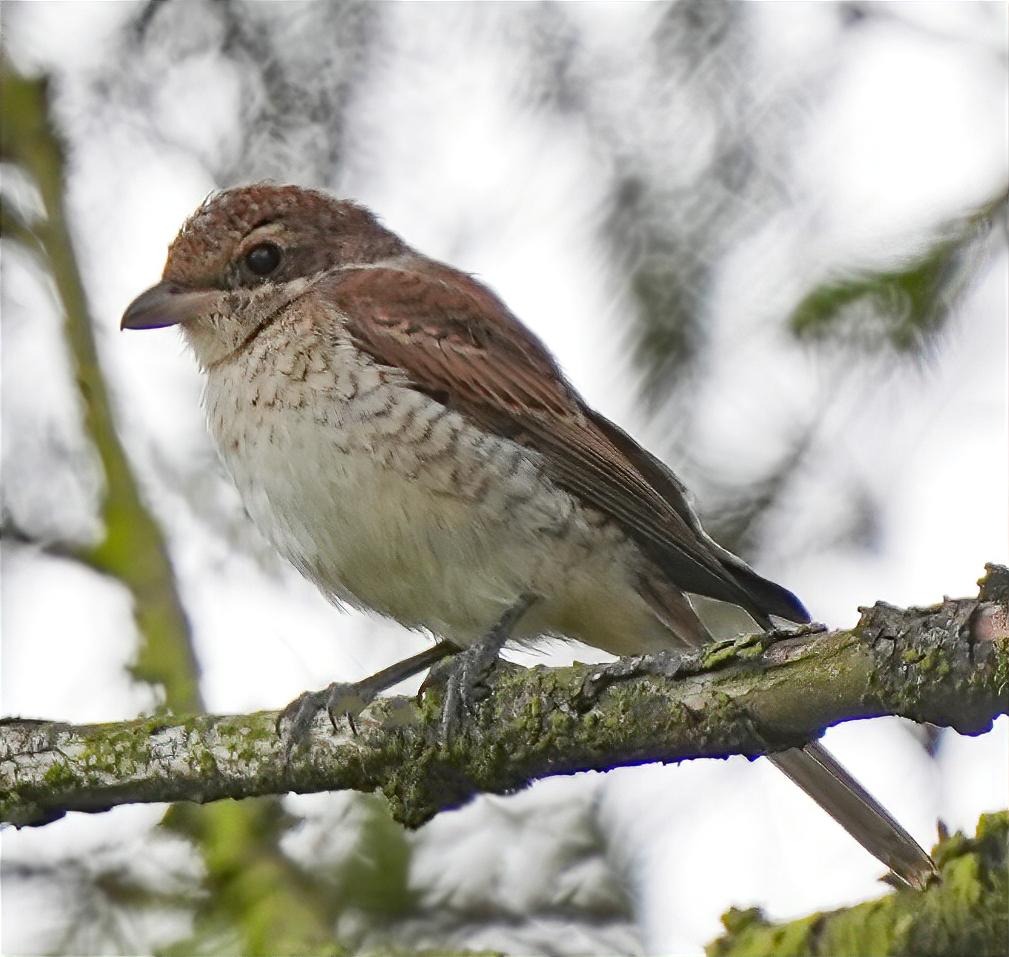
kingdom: Animalia
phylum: Chordata
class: Aves
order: Passeriformes
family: Laniidae
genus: Lanius
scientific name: Lanius collurio
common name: Rødrygget tornskade
